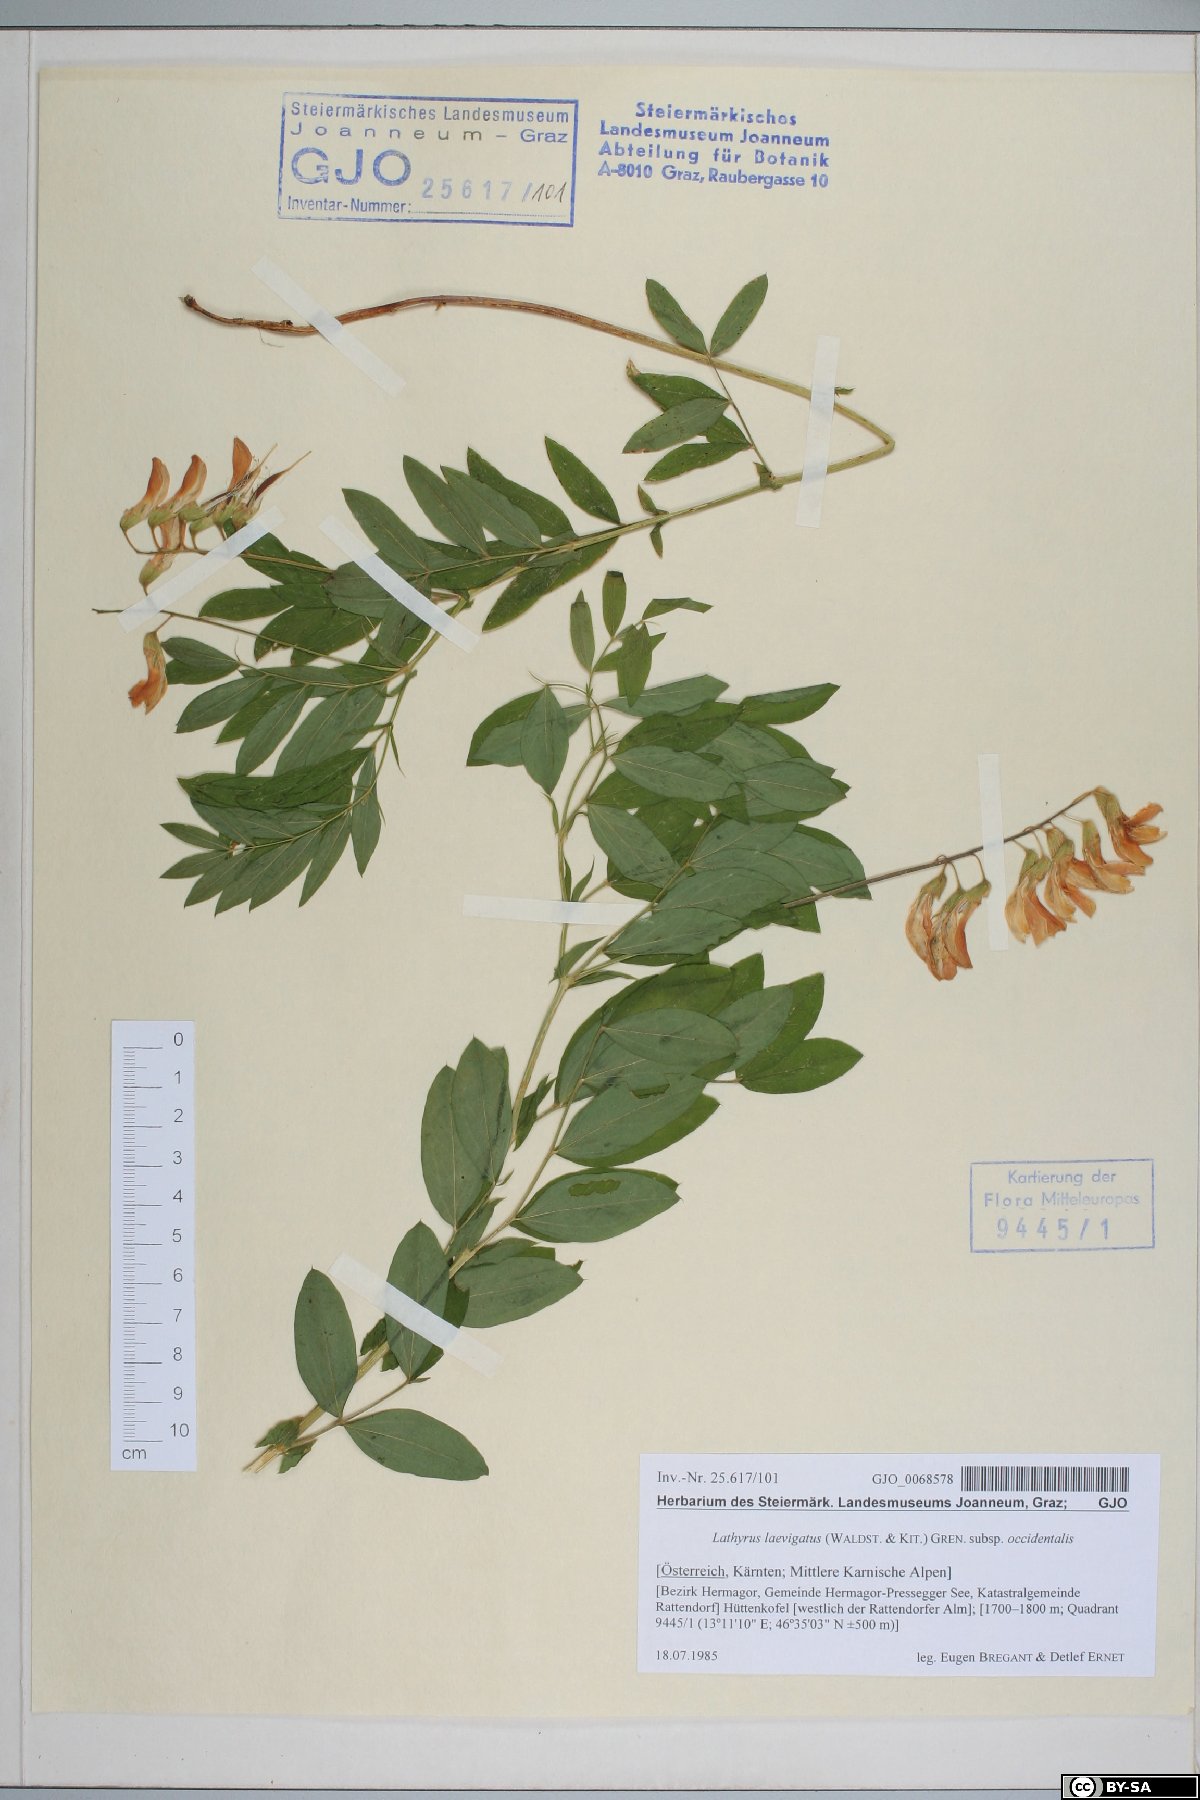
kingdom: Plantae
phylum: Tracheophyta
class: Magnoliopsida
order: Fabales
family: Fabaceae
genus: Lathyrus
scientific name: Lathyrus laevigatus
